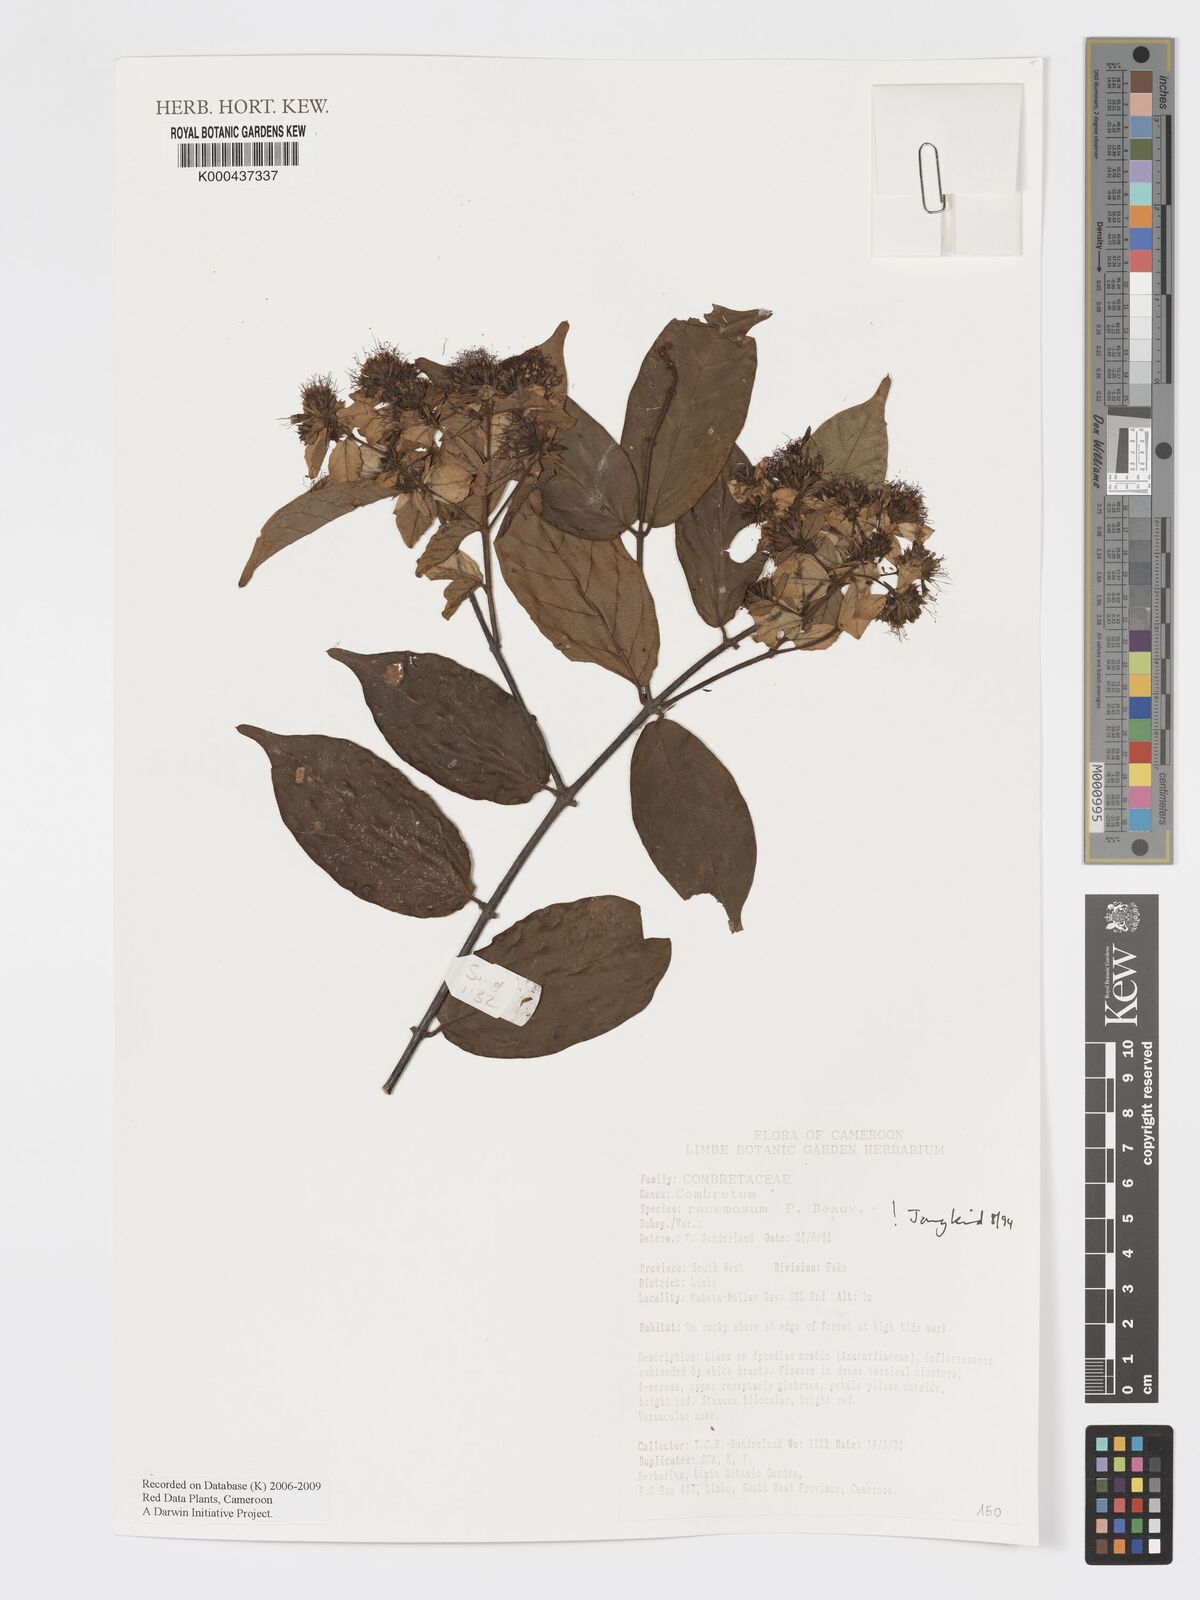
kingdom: Plantae
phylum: Tracheophyta
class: Magnoliopsida
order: Myrtales
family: Combretaceae
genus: Combretum
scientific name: Combretum racemosum
